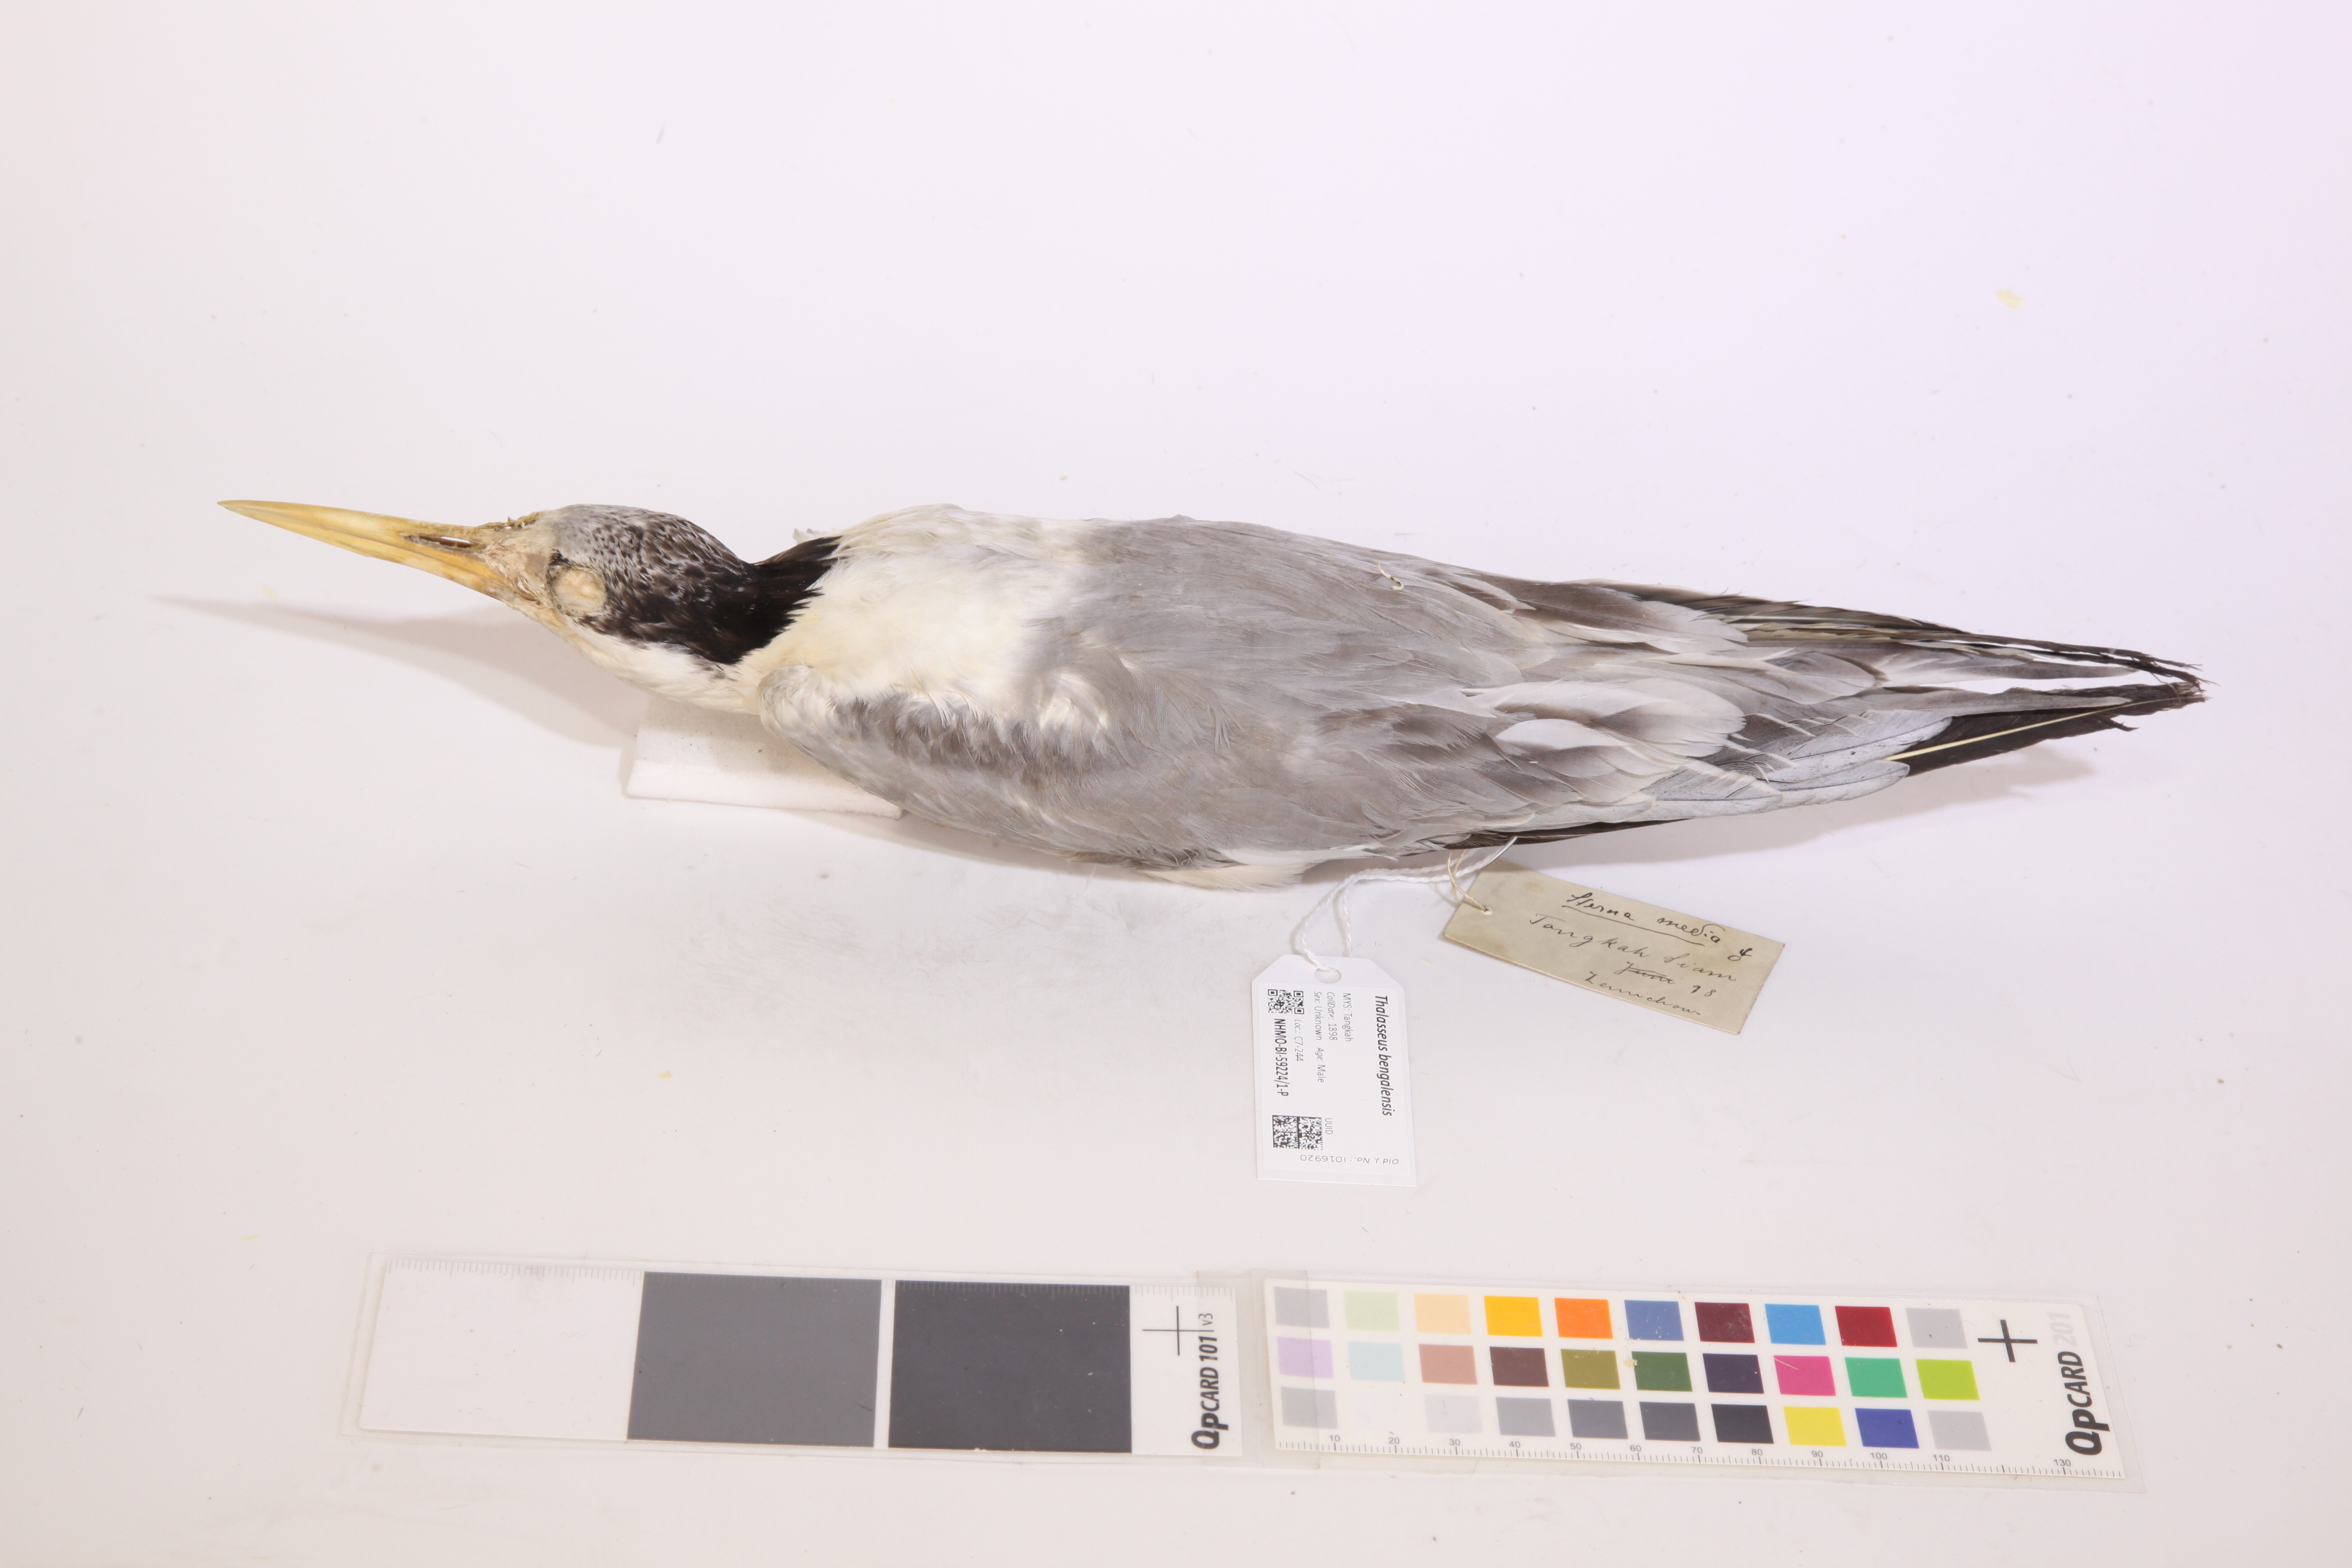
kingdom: Animalia
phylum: Chordata
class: Aves
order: Charadriiformes
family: Laridae
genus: Thalasseus
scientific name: Thalasseus bengalensis
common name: Lesser crested tern
